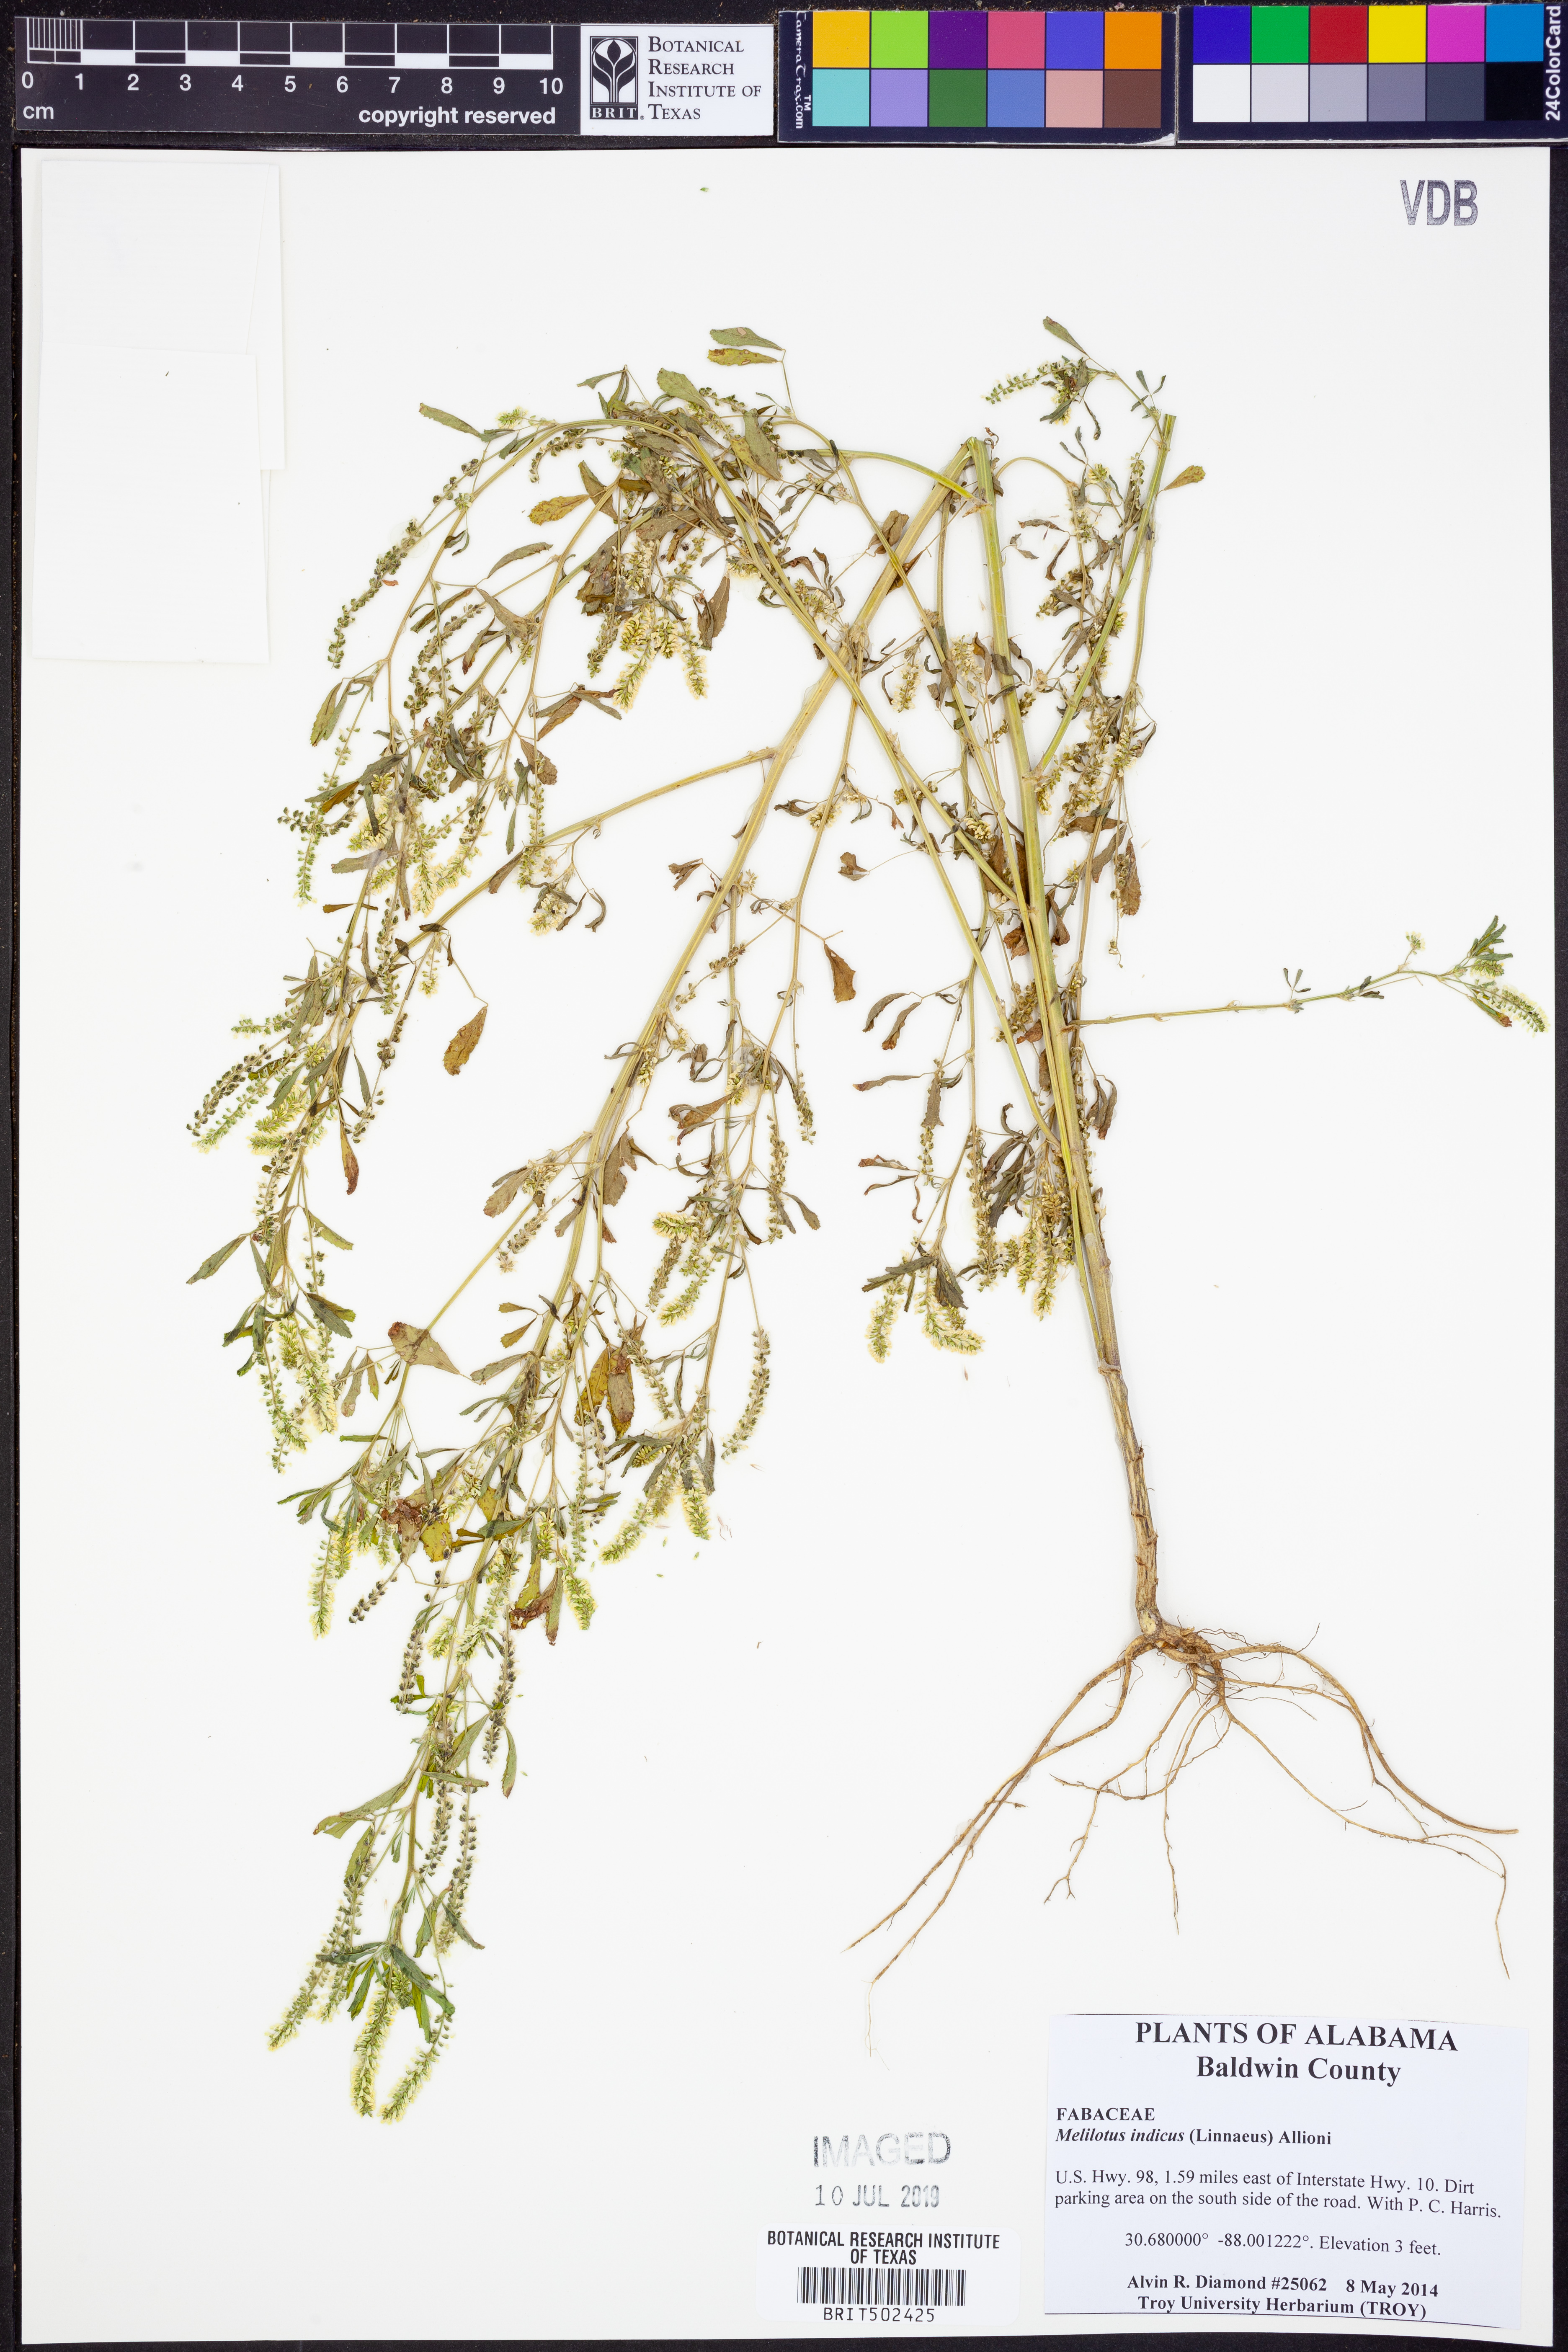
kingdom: Plantae
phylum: Tracheophyta
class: Magnoliopsida
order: Fabales
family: Fabaceae
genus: Melilotus
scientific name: Melilotus indicus
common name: Small melilot
